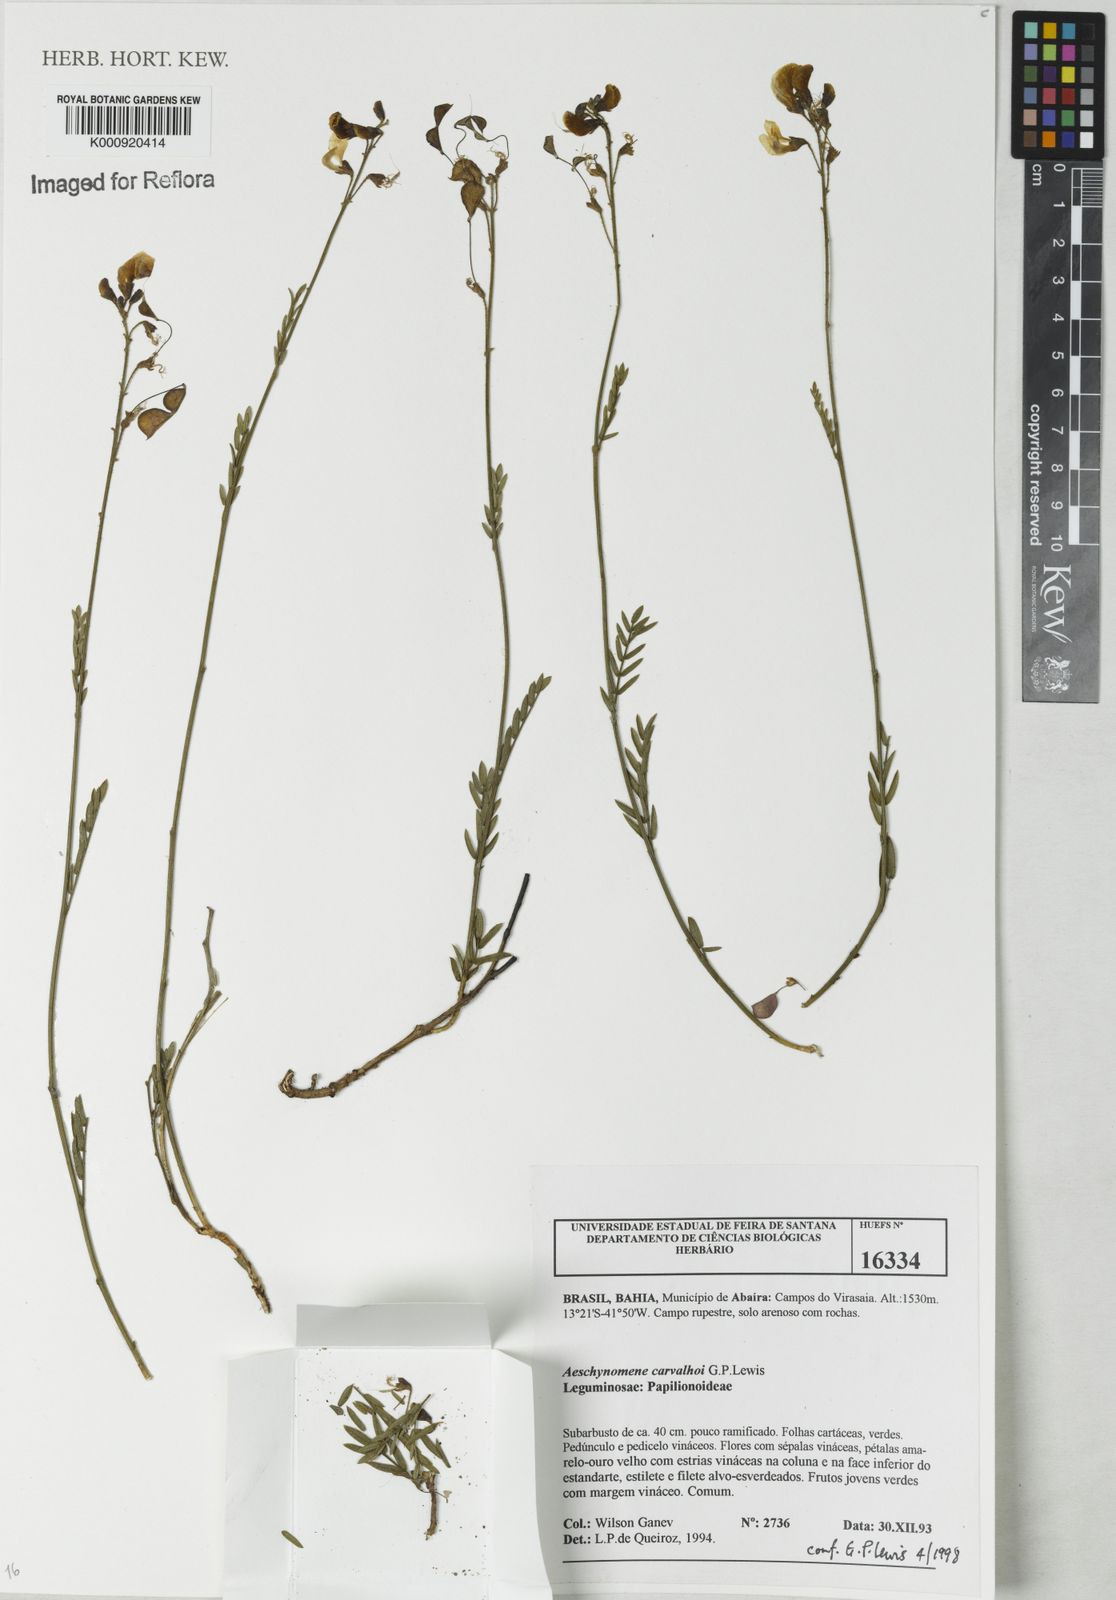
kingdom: Plantae
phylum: Tracheophyta
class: Magnoliopsida
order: Fabales
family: Fabaceae
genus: Ctenodon
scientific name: Ctenodon carvalhoi
